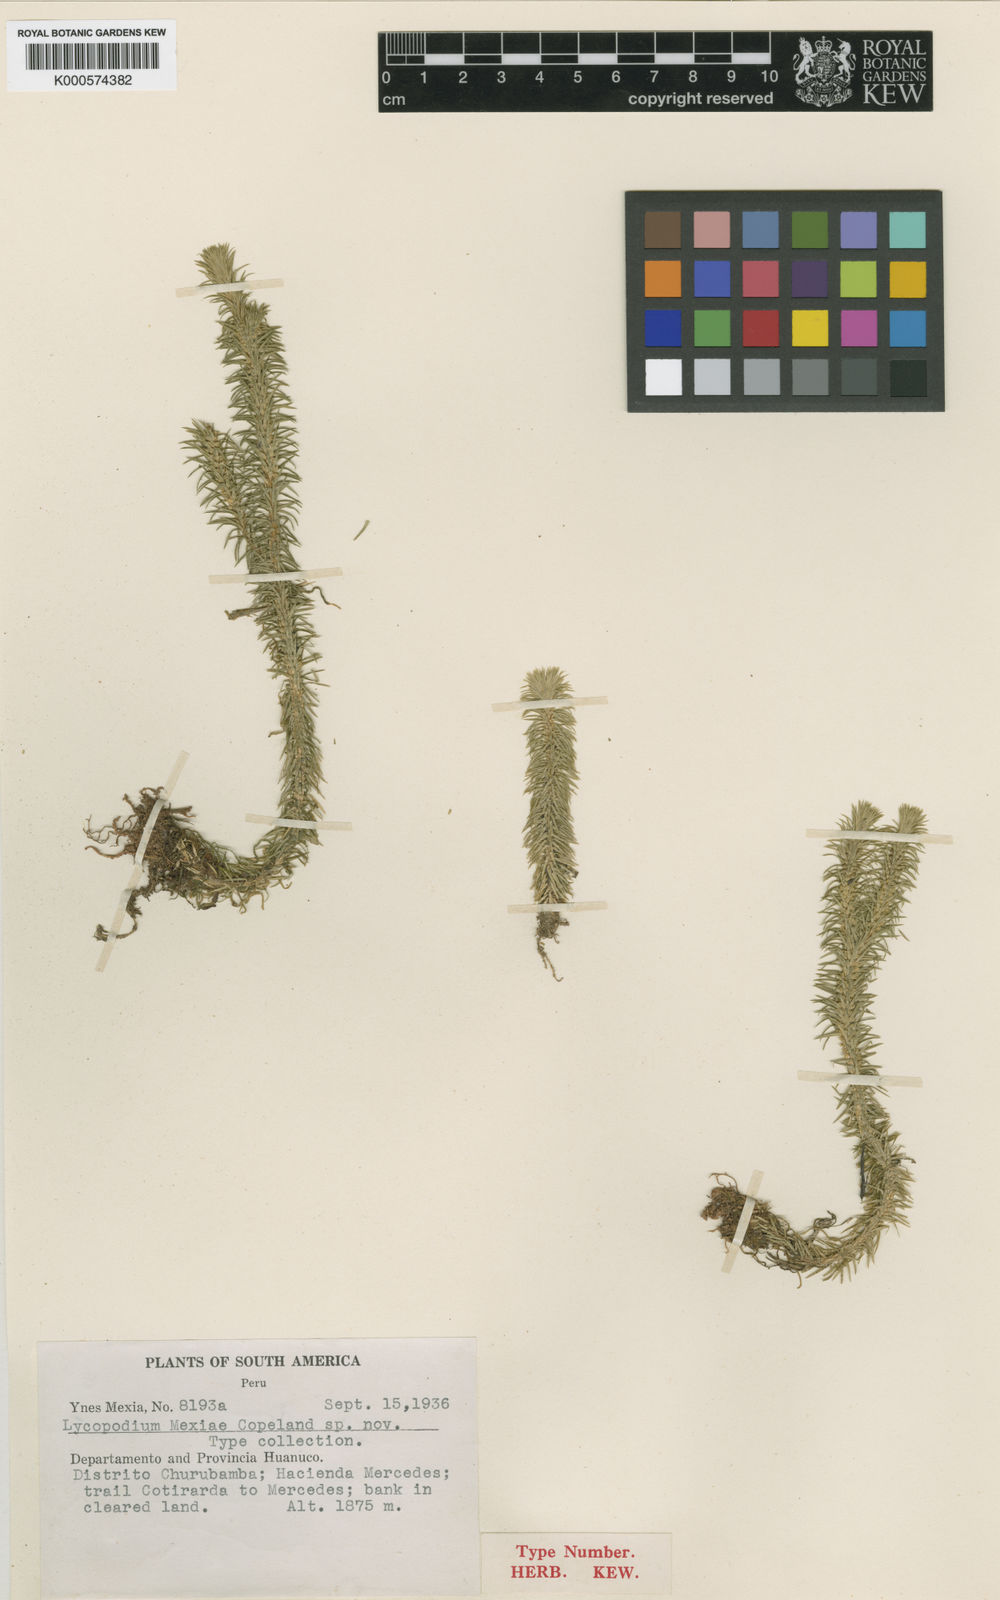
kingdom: Plantae
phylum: Tracheophyta
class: Lycopodiopsida
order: Lycopodiales
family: Lycopodiaceae
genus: Phlegmariurus
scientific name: Phlegmariurus reflexus
